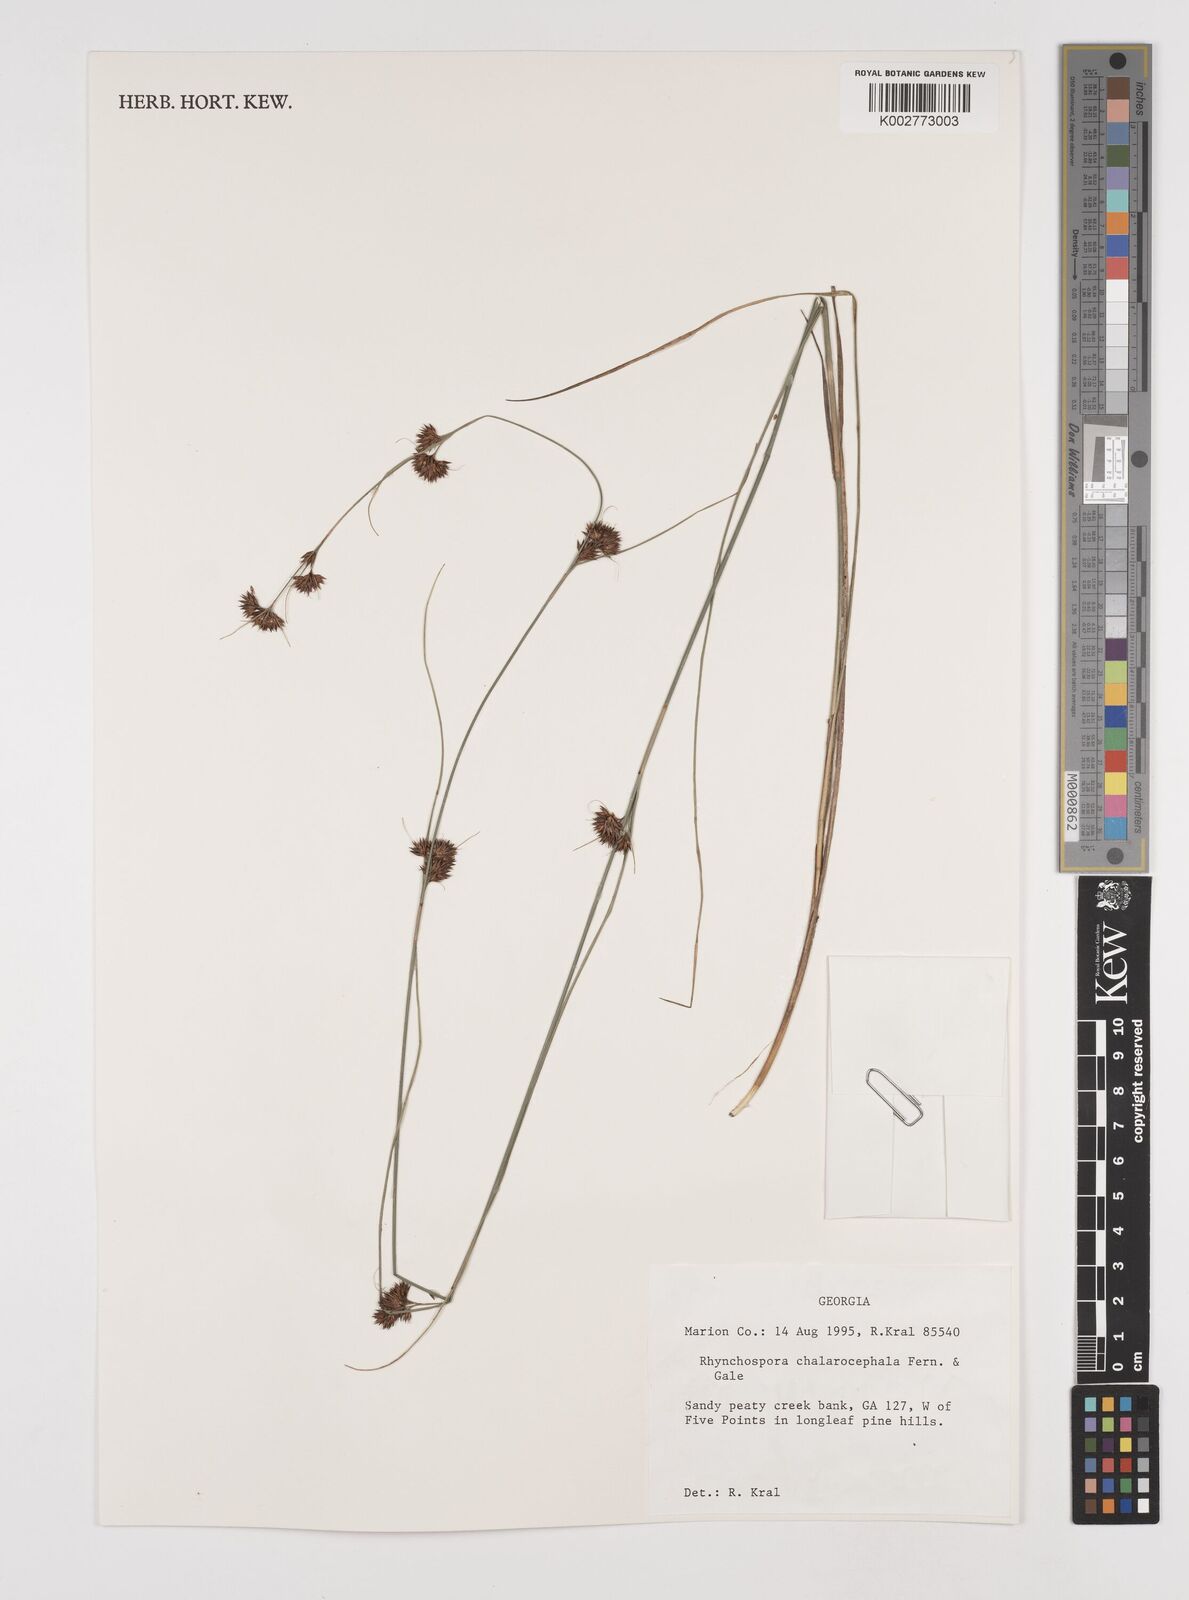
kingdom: Plantae
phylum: Tracheophyta
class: Liliopsida
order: Poales
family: Cyperaceae
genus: Rhynchospora
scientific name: Rhynchospora chalarocephala
